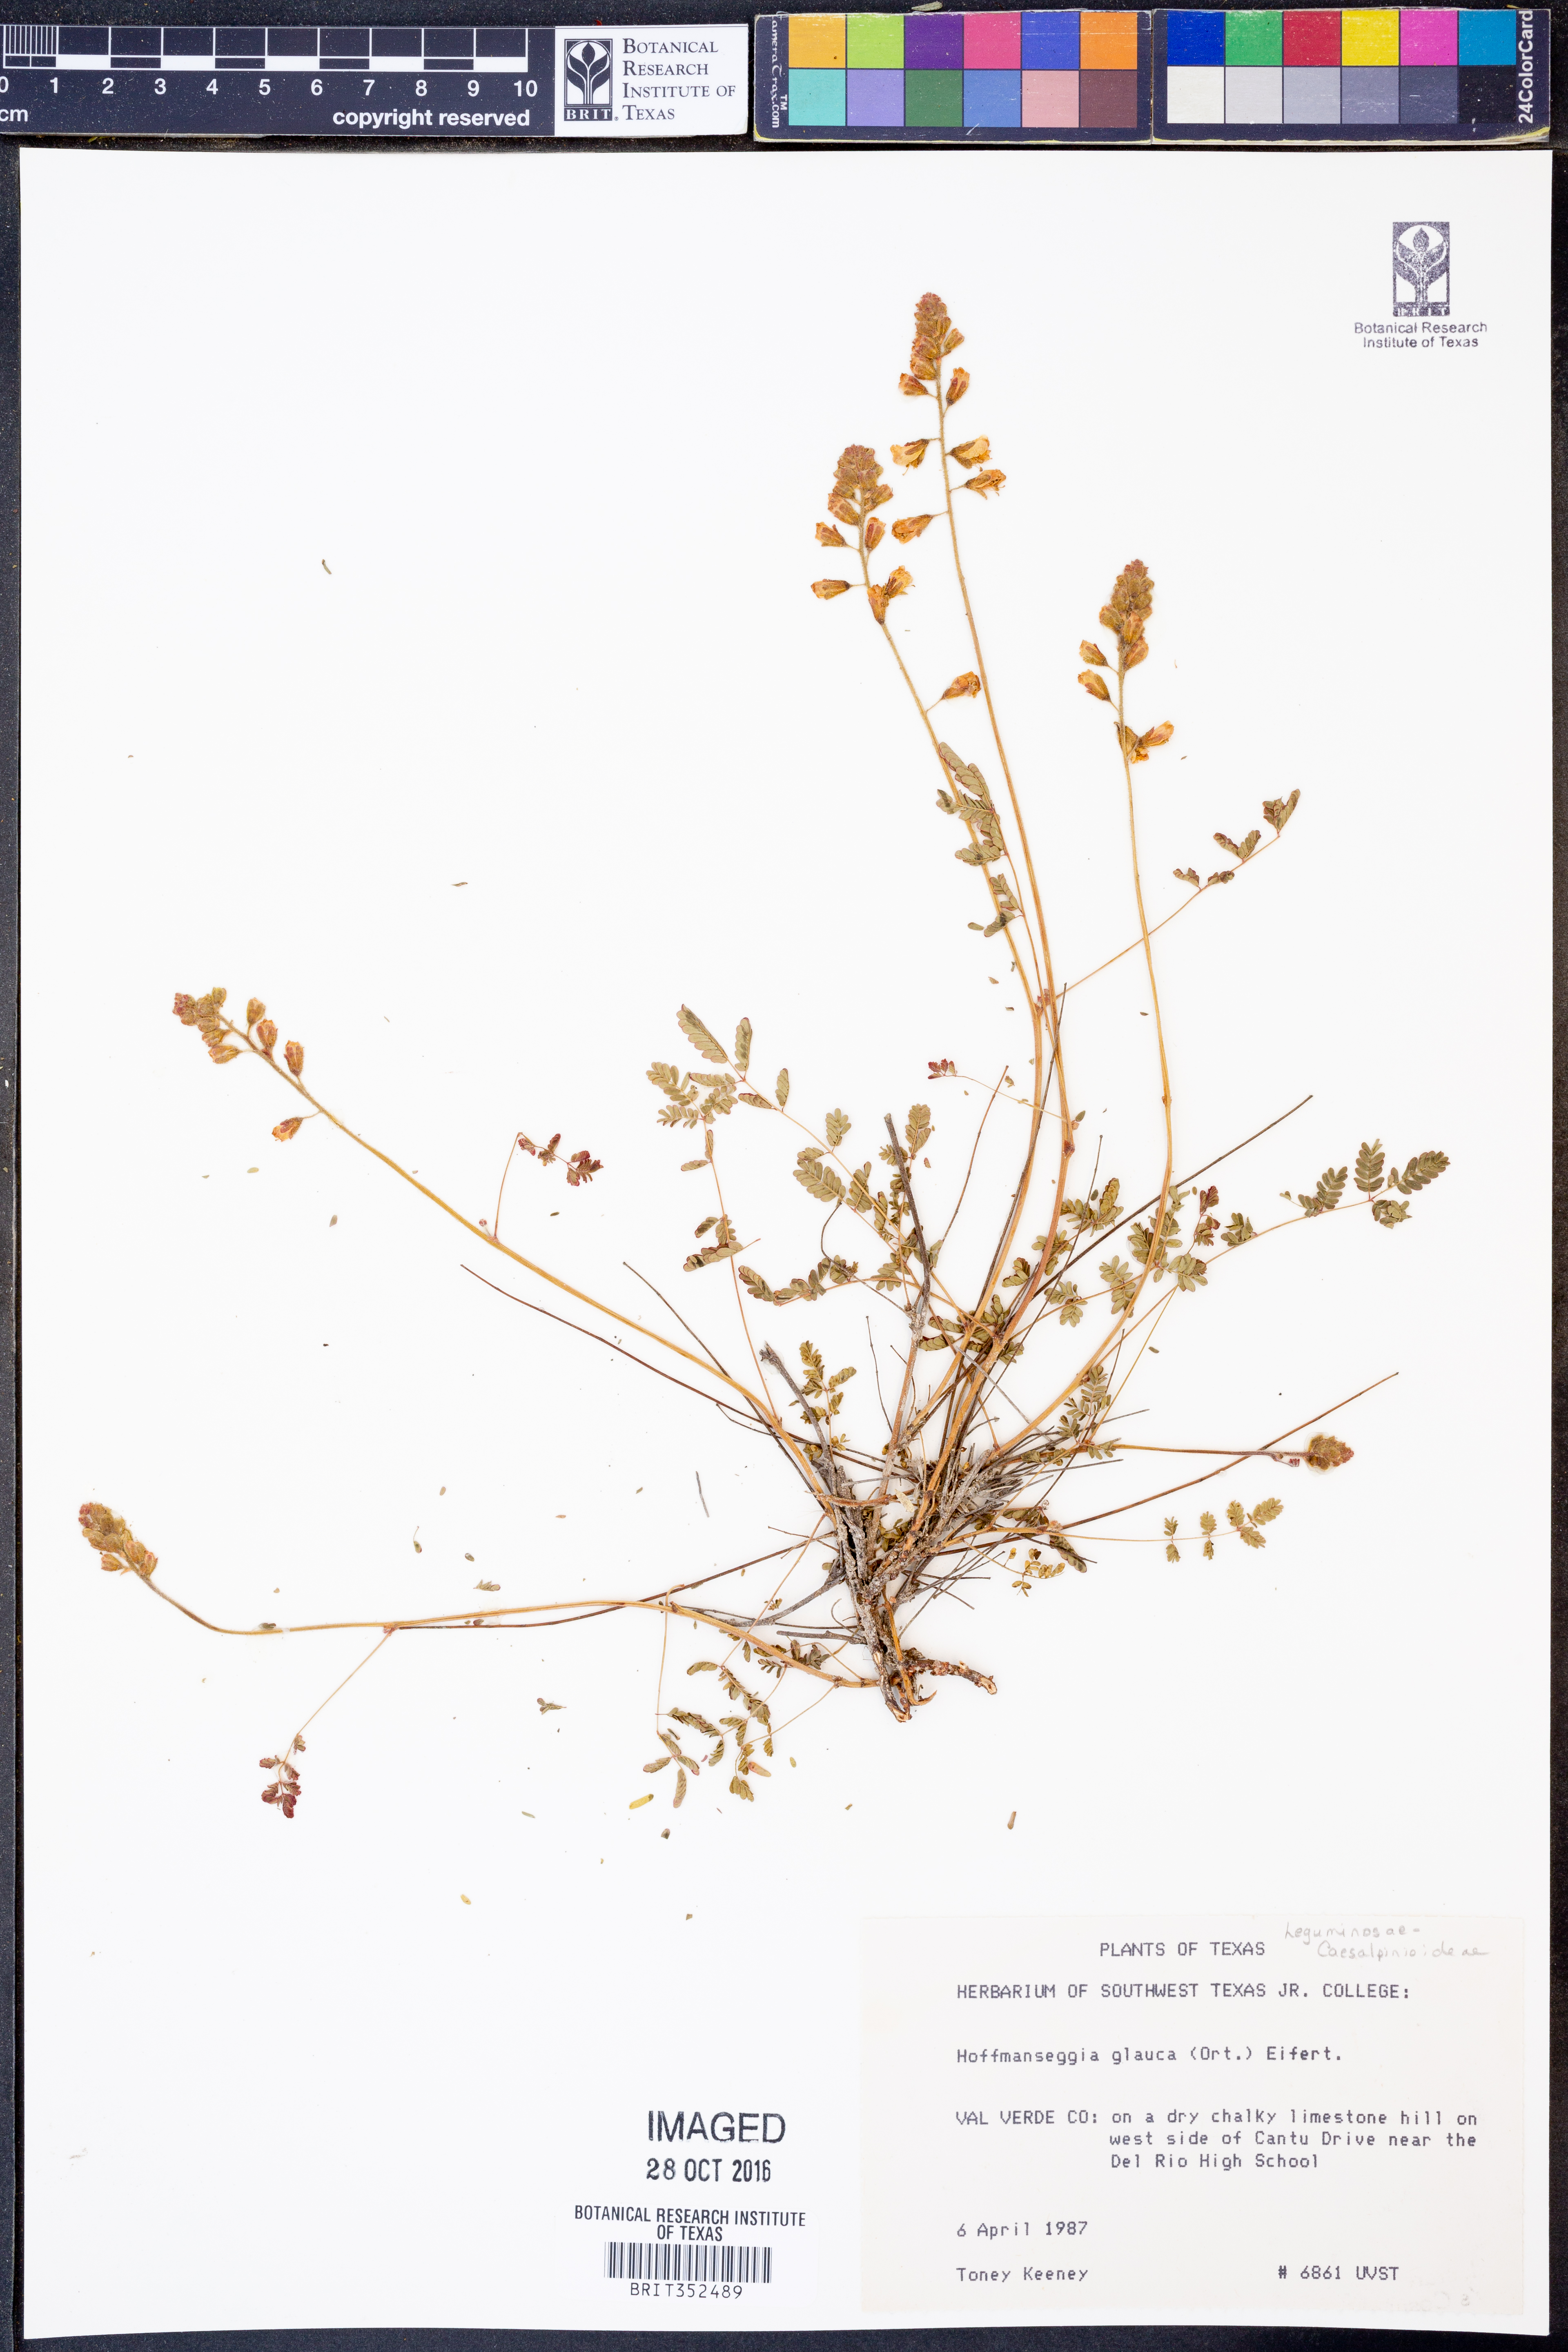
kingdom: Plantae
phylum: Tracheophyta
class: Magnoliopsida
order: Fabales
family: Fabaceae
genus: Hoffmannseggia
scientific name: Hoffmannseggia glauca
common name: Pignut
